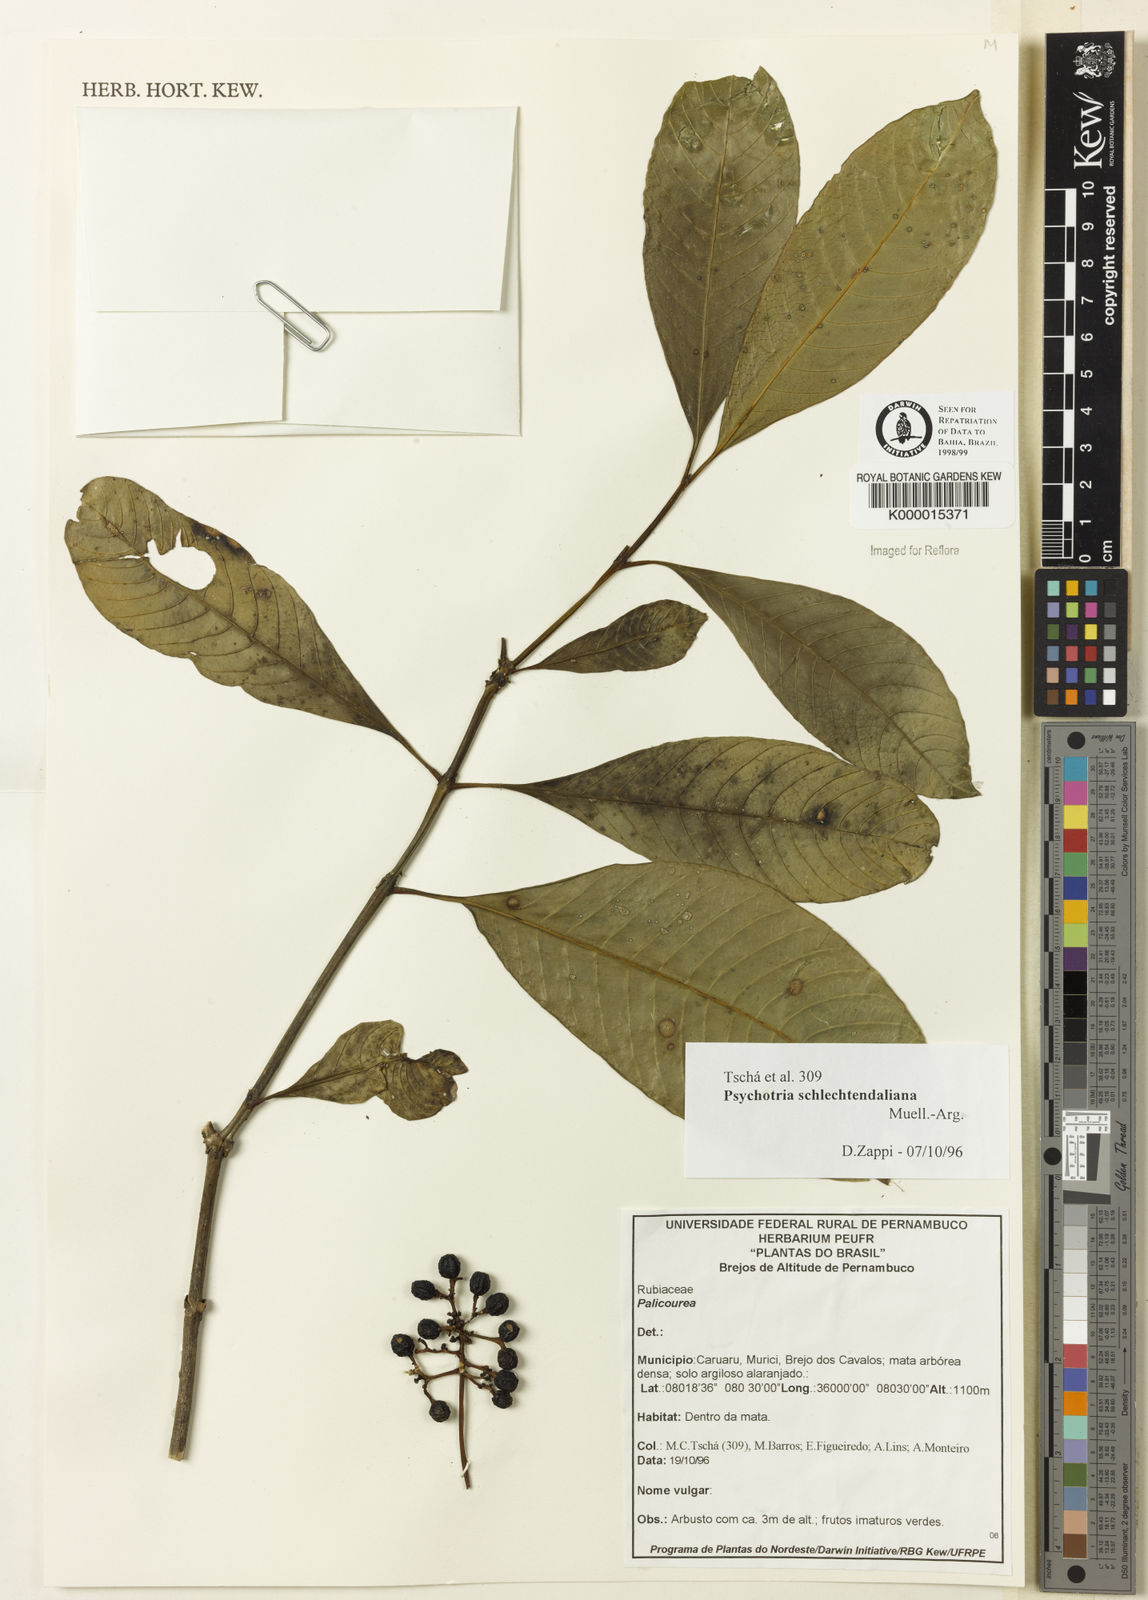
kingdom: Plantae
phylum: Tracheophyta
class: Magnoliopsida
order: Gentianales
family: Rubiaceae
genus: Palicourea
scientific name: Palicourea divaricata
